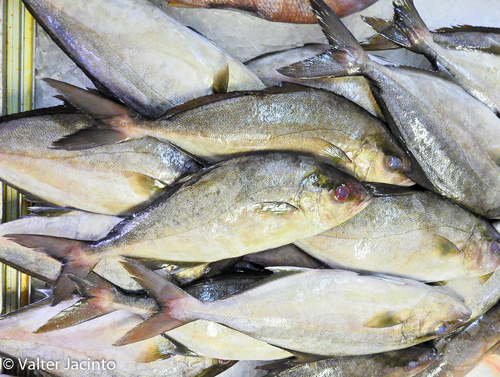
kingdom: Animalia
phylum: Chordata
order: Perciformes
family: Carangidae
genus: Seriola
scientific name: Seriola rivoliana
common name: Almaco jack
